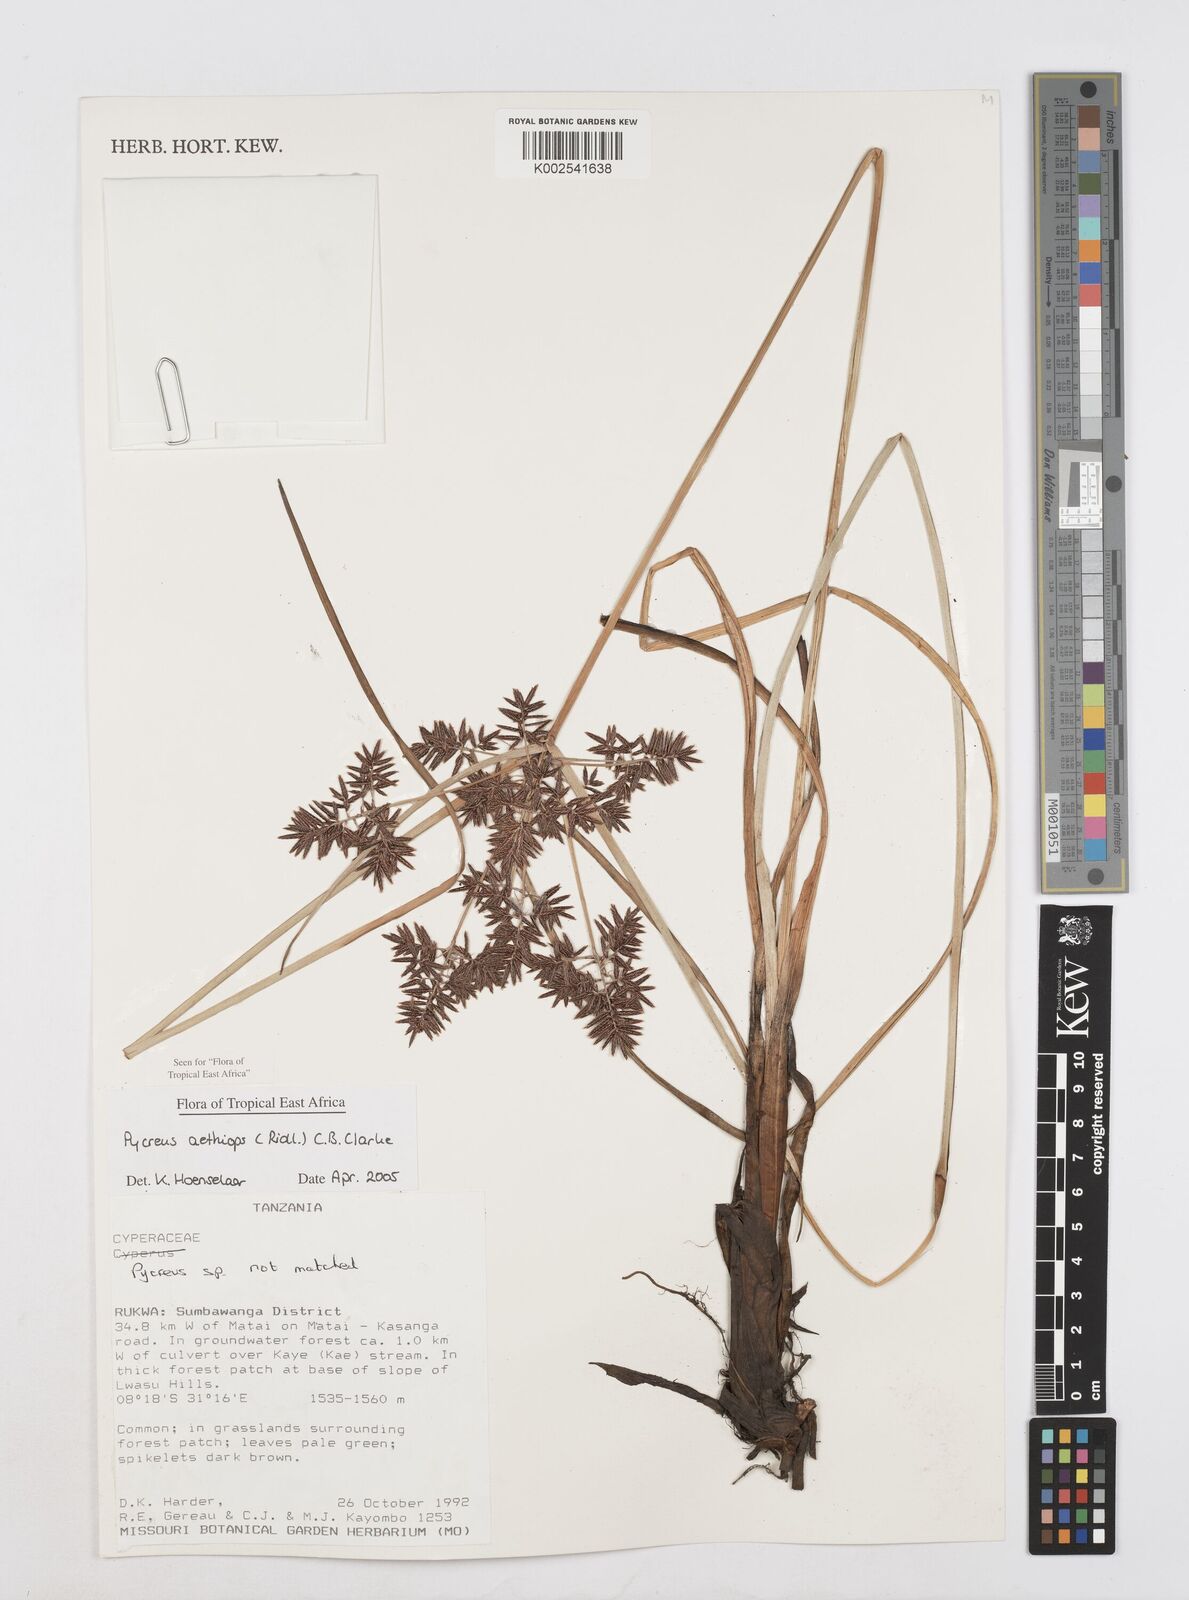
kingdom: Plantae
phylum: Tracheophyta
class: Liliopsida
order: Poales
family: Cyperaceae
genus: Cyperus
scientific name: Cyperus aethiops
